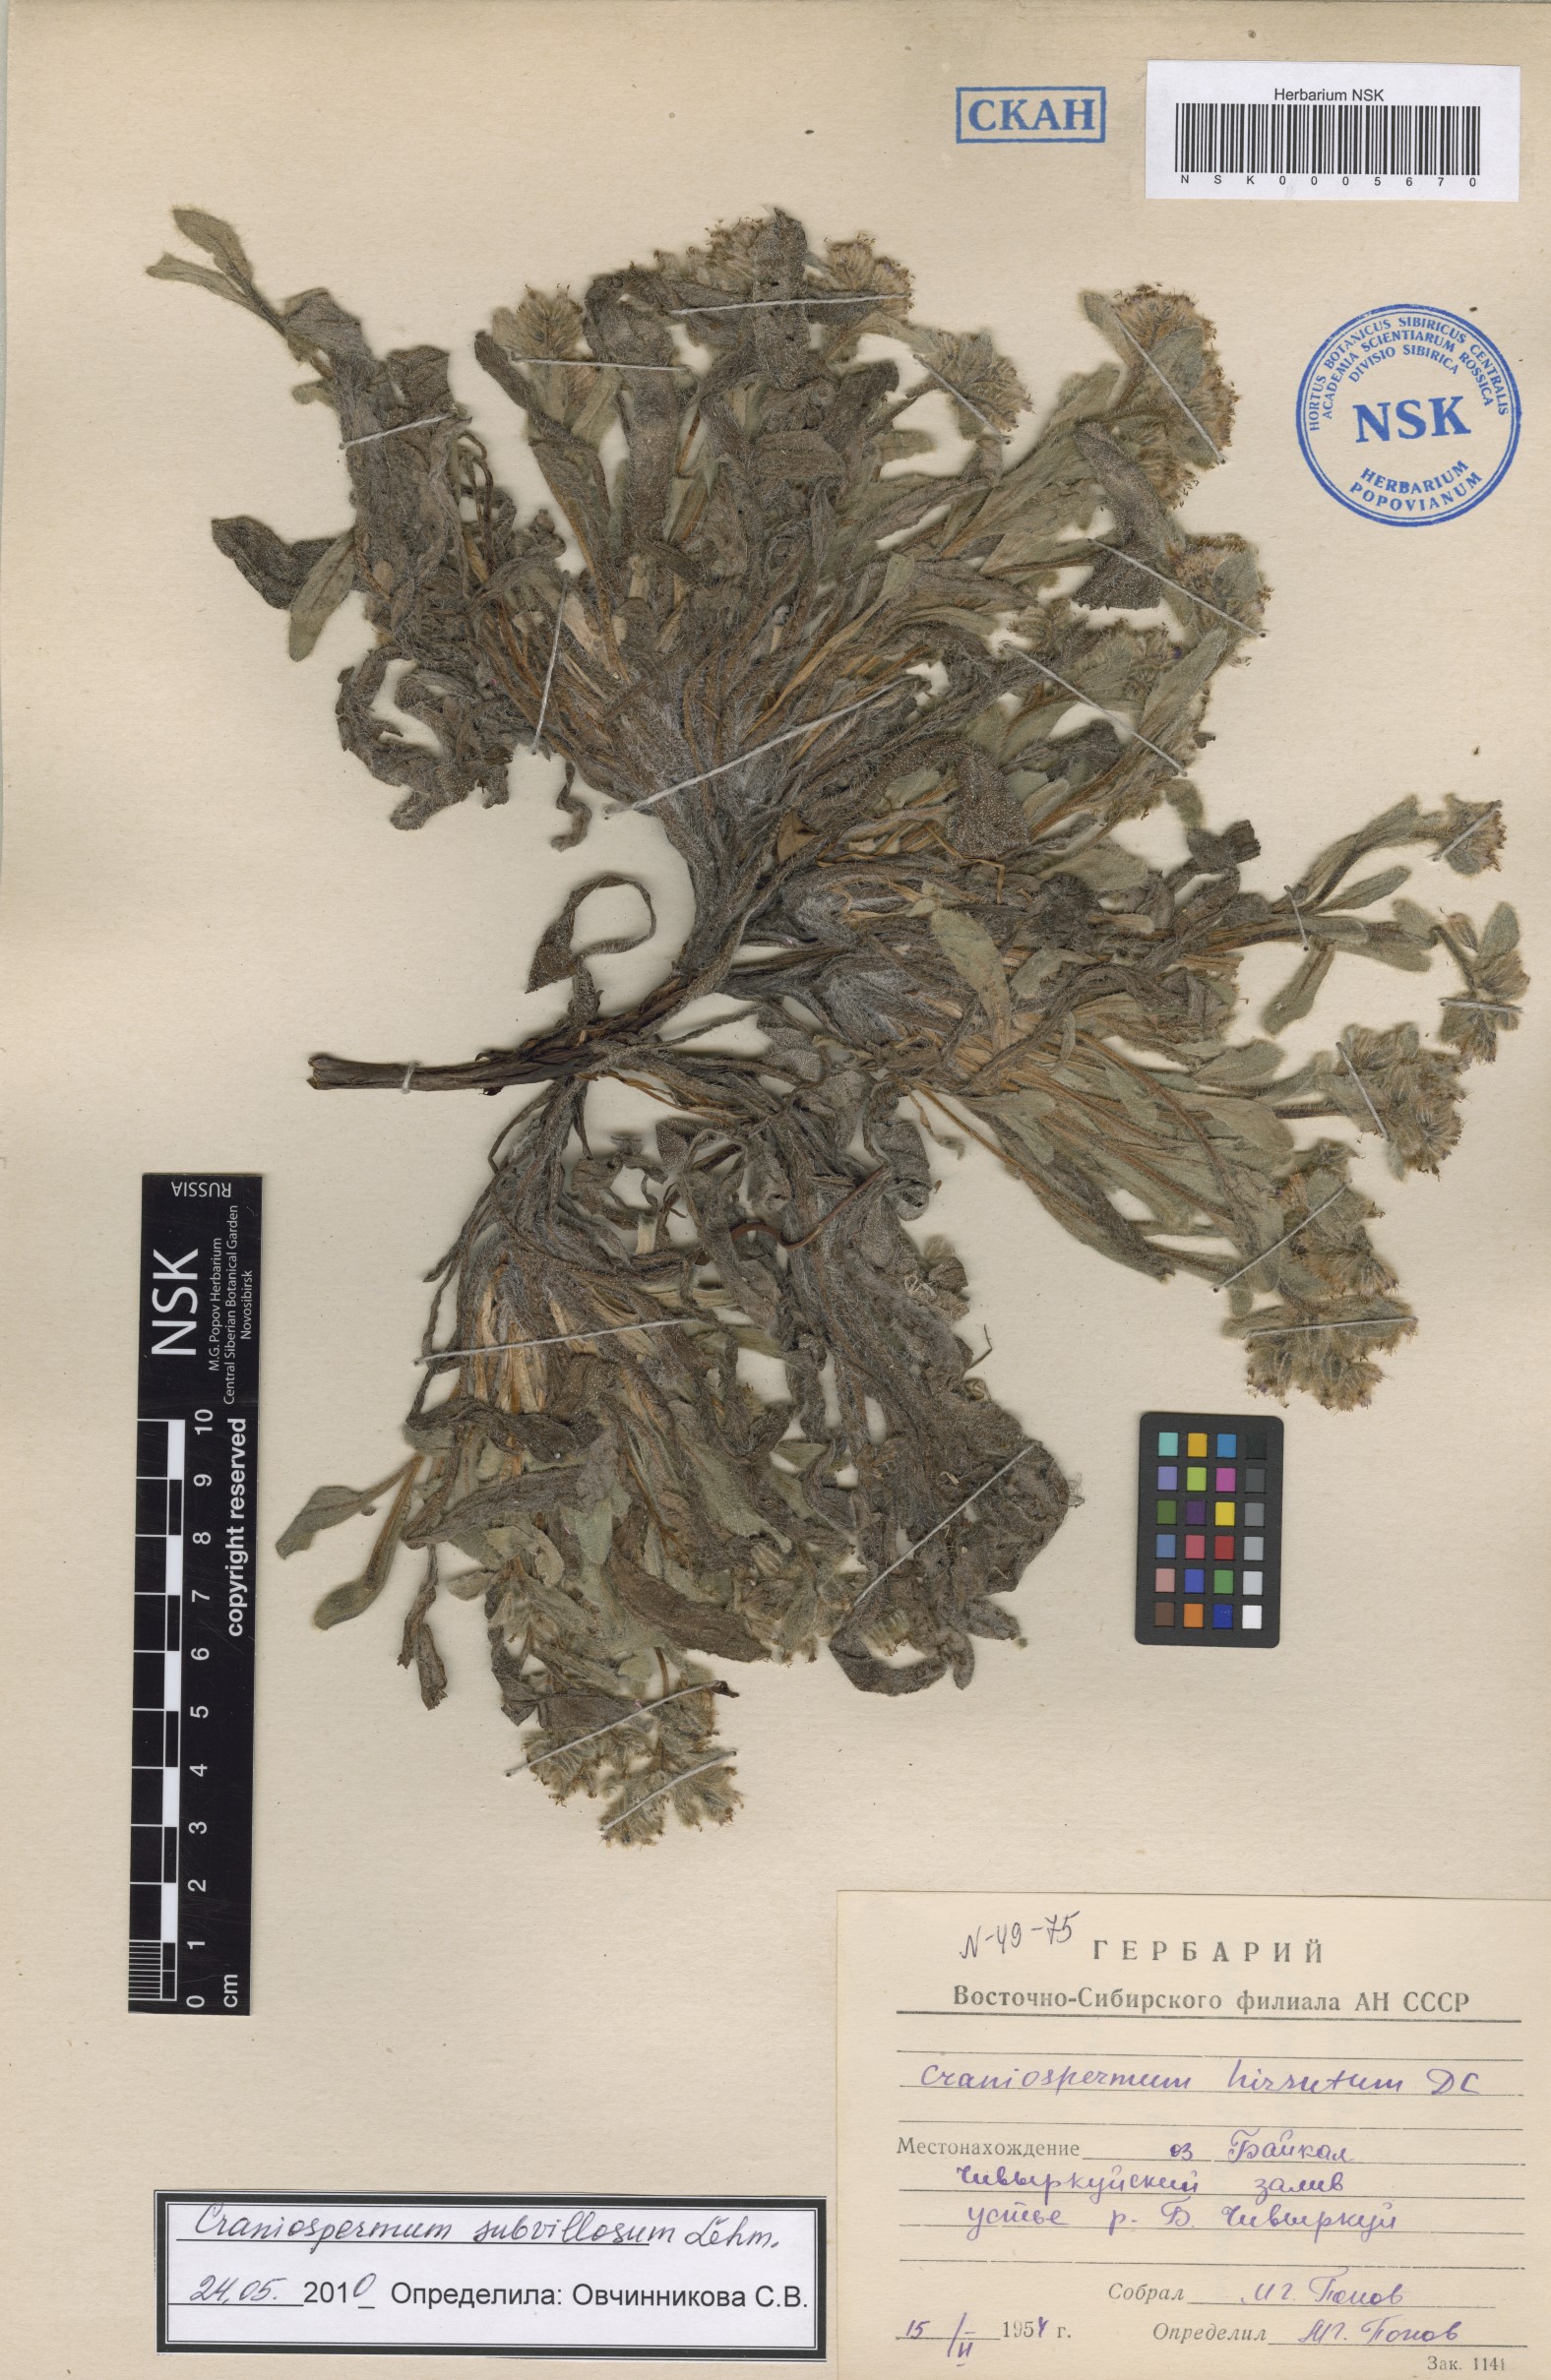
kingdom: Plantae
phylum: Tracheophyta
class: Magnoliopsida
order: Boraginales
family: Boraginaceae
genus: Craniospermum
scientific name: Craniospermum subvillosum
